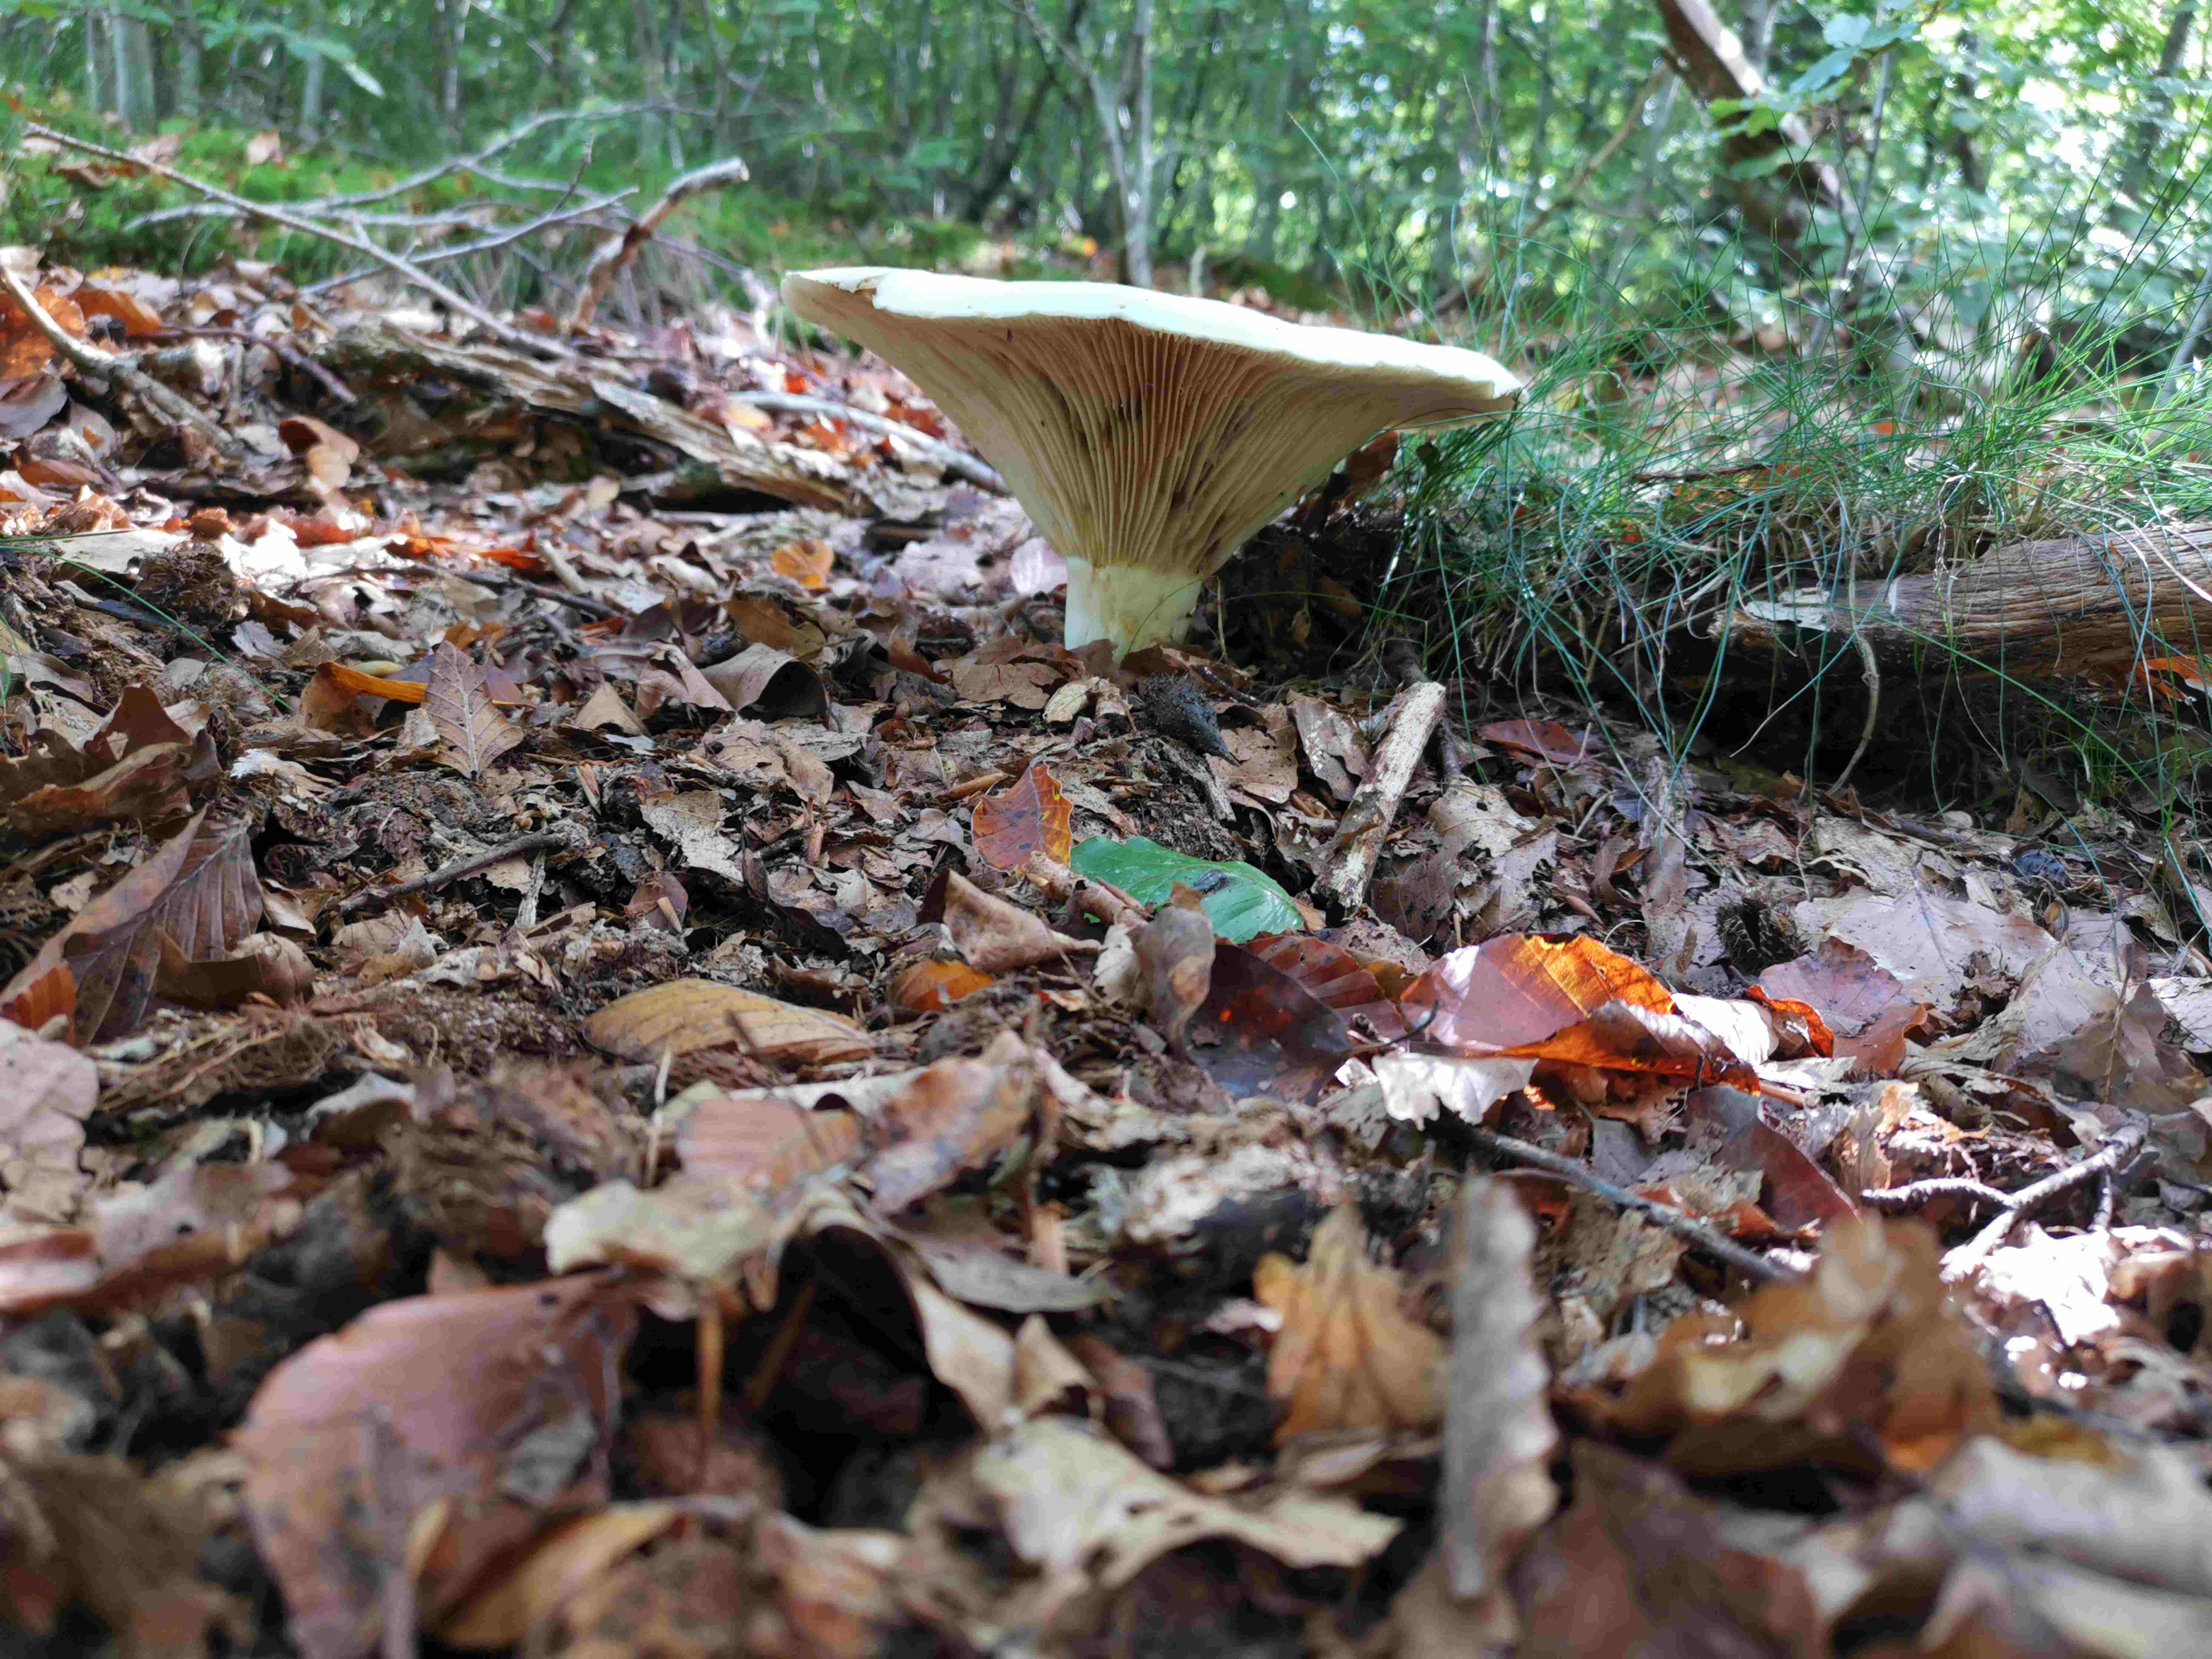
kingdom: Fungi
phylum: Basidiomycota
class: Agaricomycetes
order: Russulales
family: Russulaceae
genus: Lactifluus
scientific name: Lactifluus
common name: mælkehat
